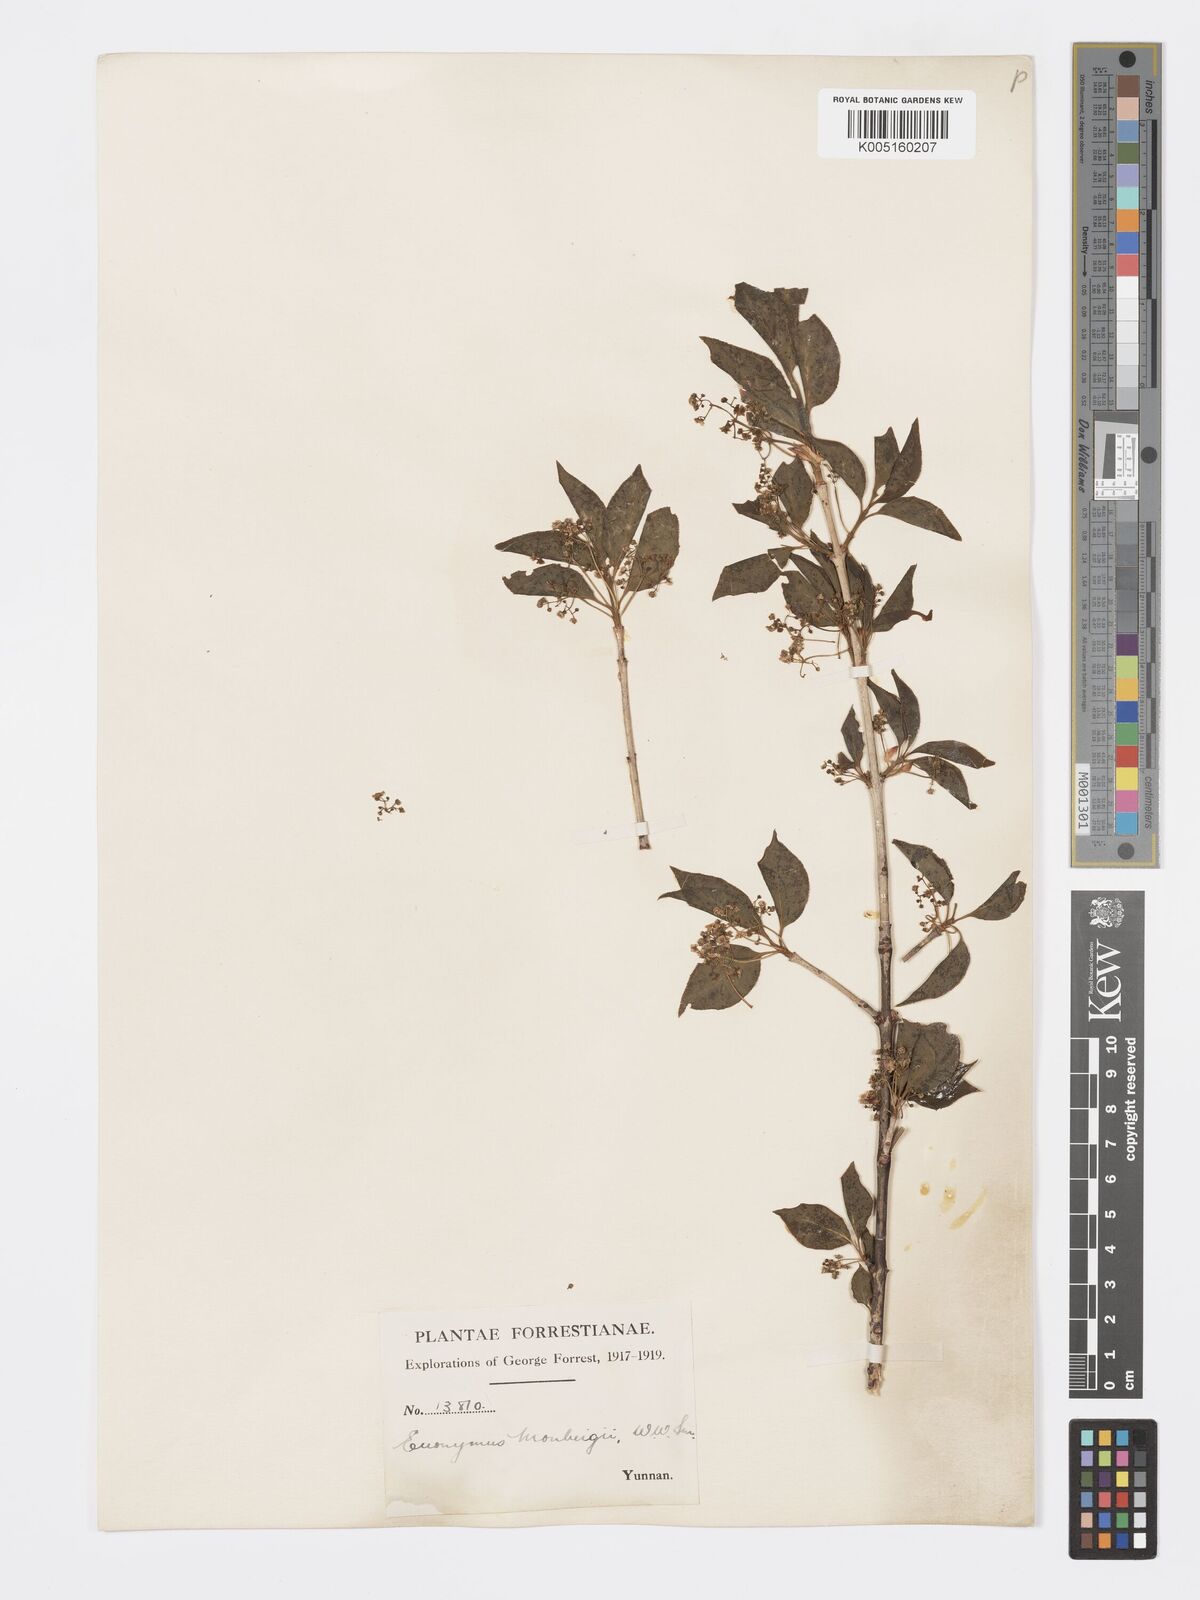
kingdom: Plantae
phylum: Tracheophyta
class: Magnoliopsida
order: Celastrales
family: Celastraceae
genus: Euonymus
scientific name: Euonymus sanguineus
